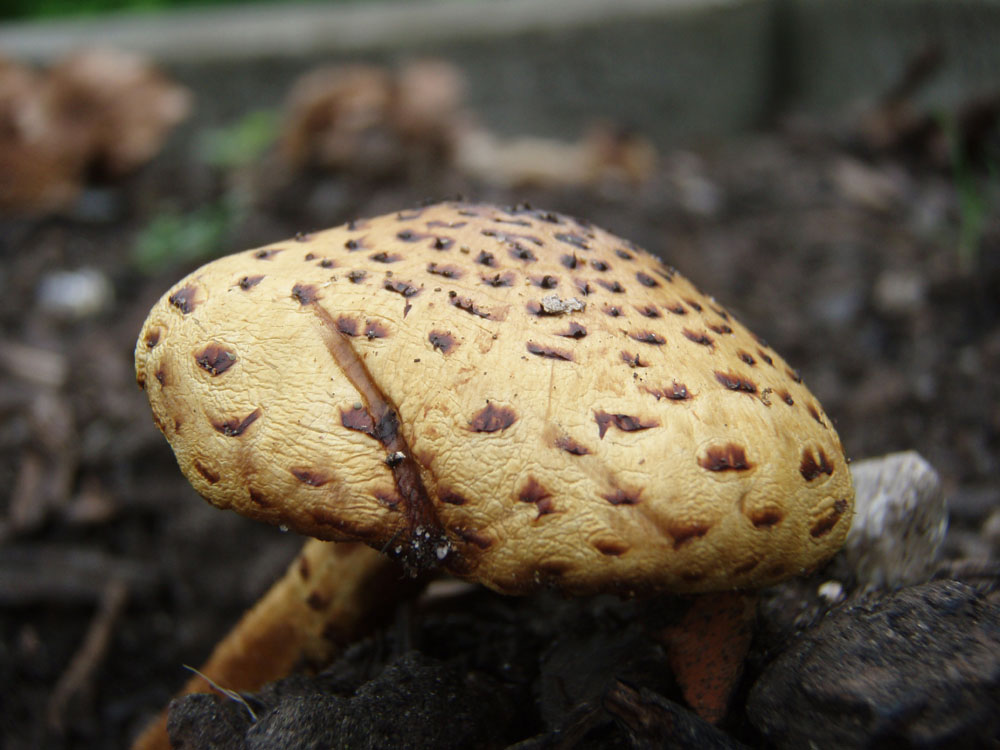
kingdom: Fungi
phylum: Basidiomycota
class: Agaricomycetes
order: Agaricales
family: Strophariaceae
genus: Pholiota
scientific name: Pholiota jahnii
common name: slimet skælhat
